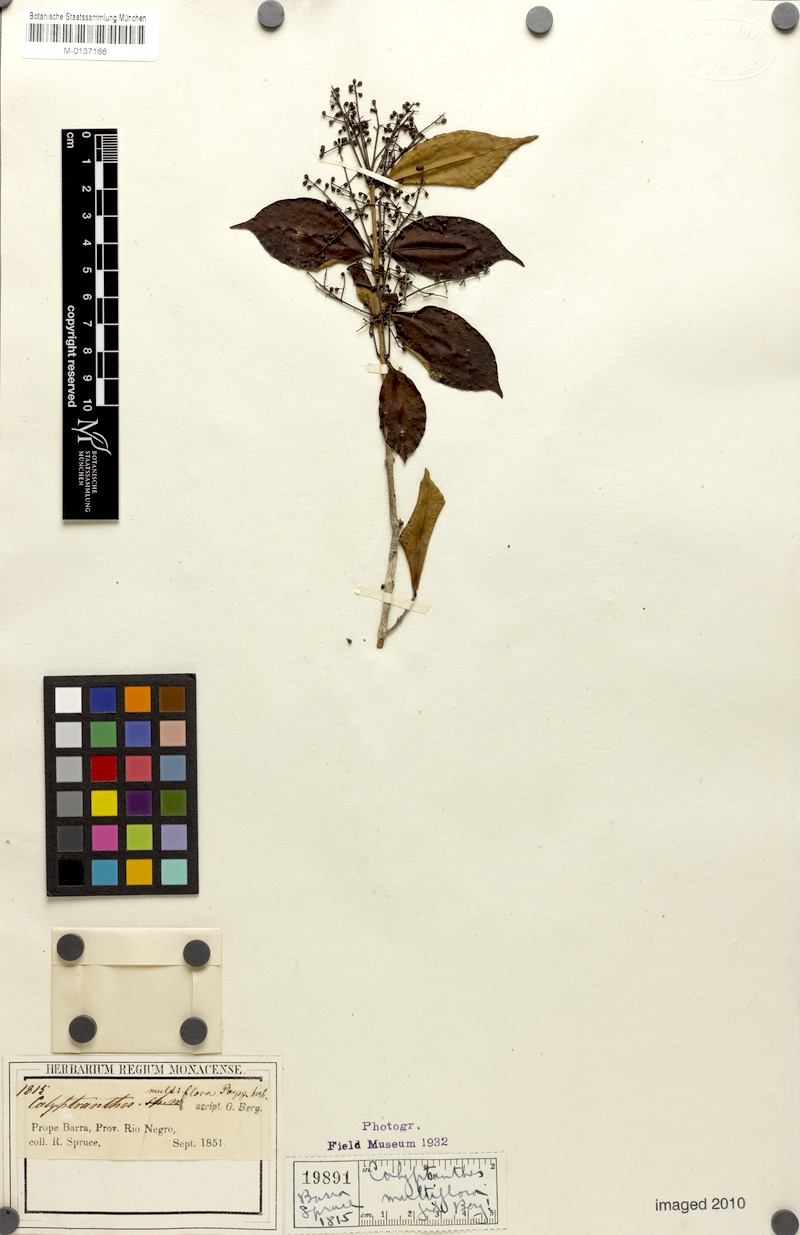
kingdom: Plantae
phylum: Tracheophyta
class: Magnoliopsida
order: Myrtales
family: Myrtaceae
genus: Myrcia
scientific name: Myrcia aulomyrcioides
